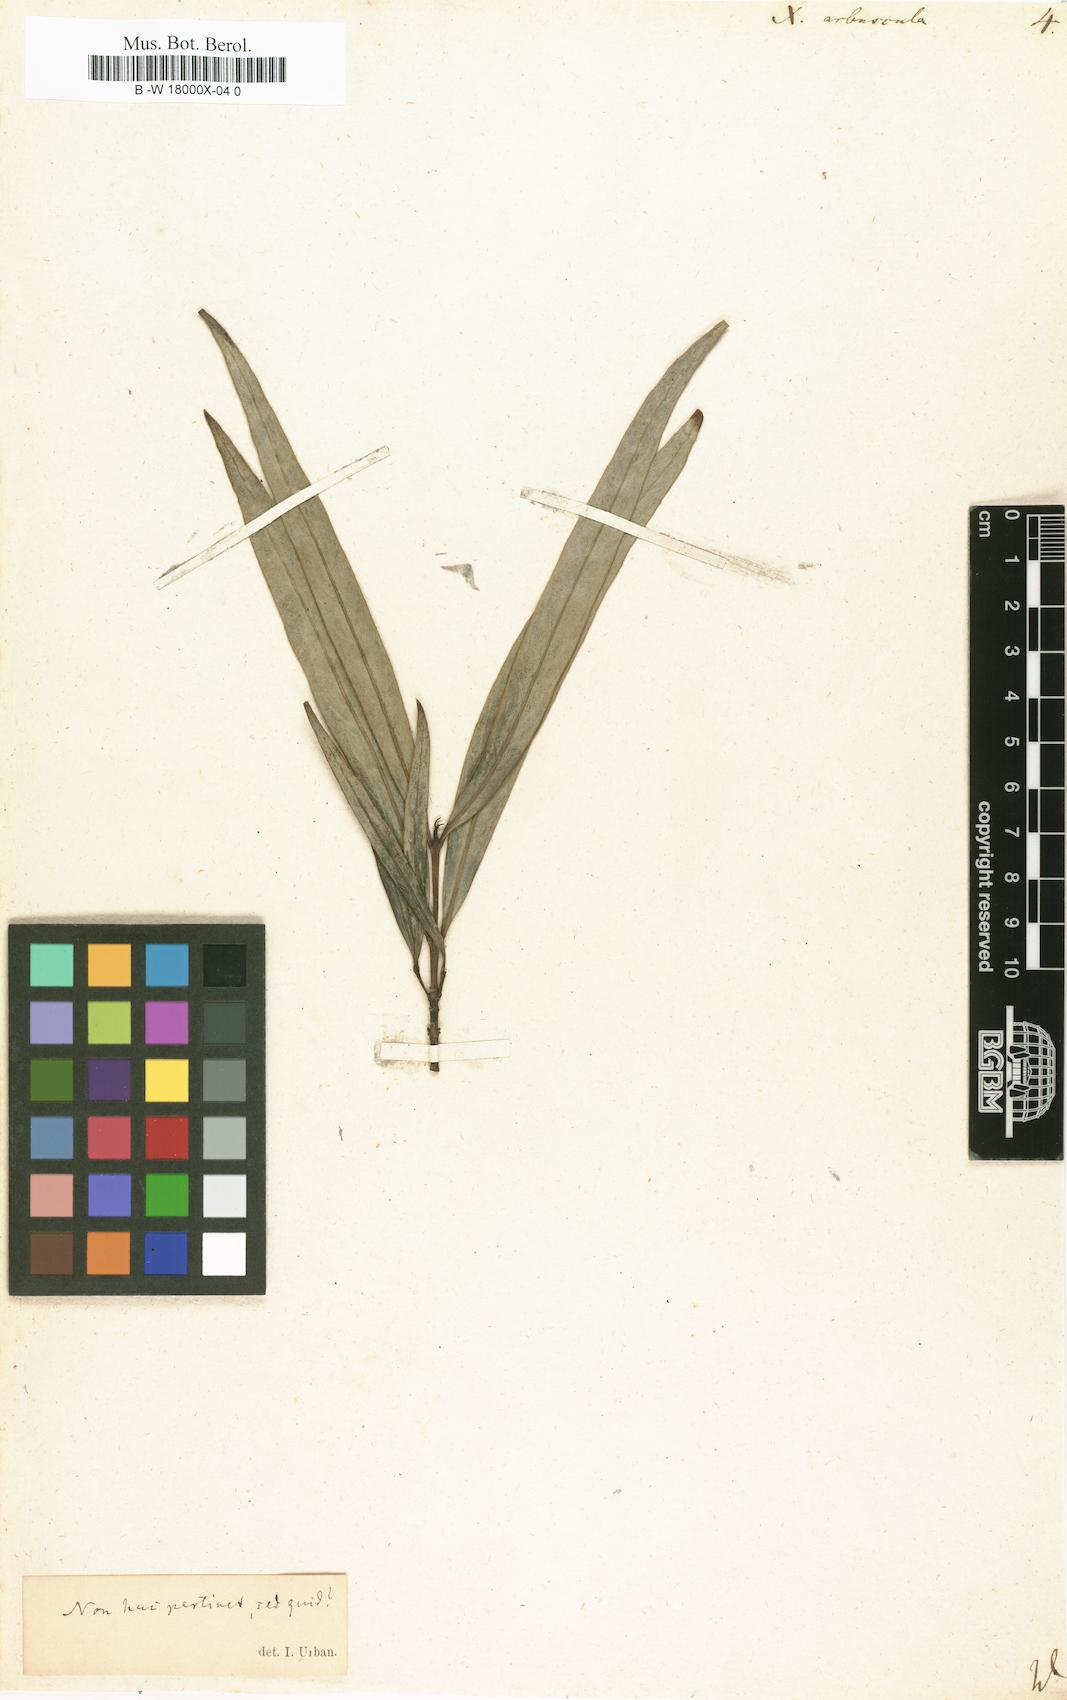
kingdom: Plantae
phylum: Tracheophyta
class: Magnoliopsida
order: Malpighiales
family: Phyllanthaceae
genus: Phyllanthus
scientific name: Phyllanthus arbuscula
